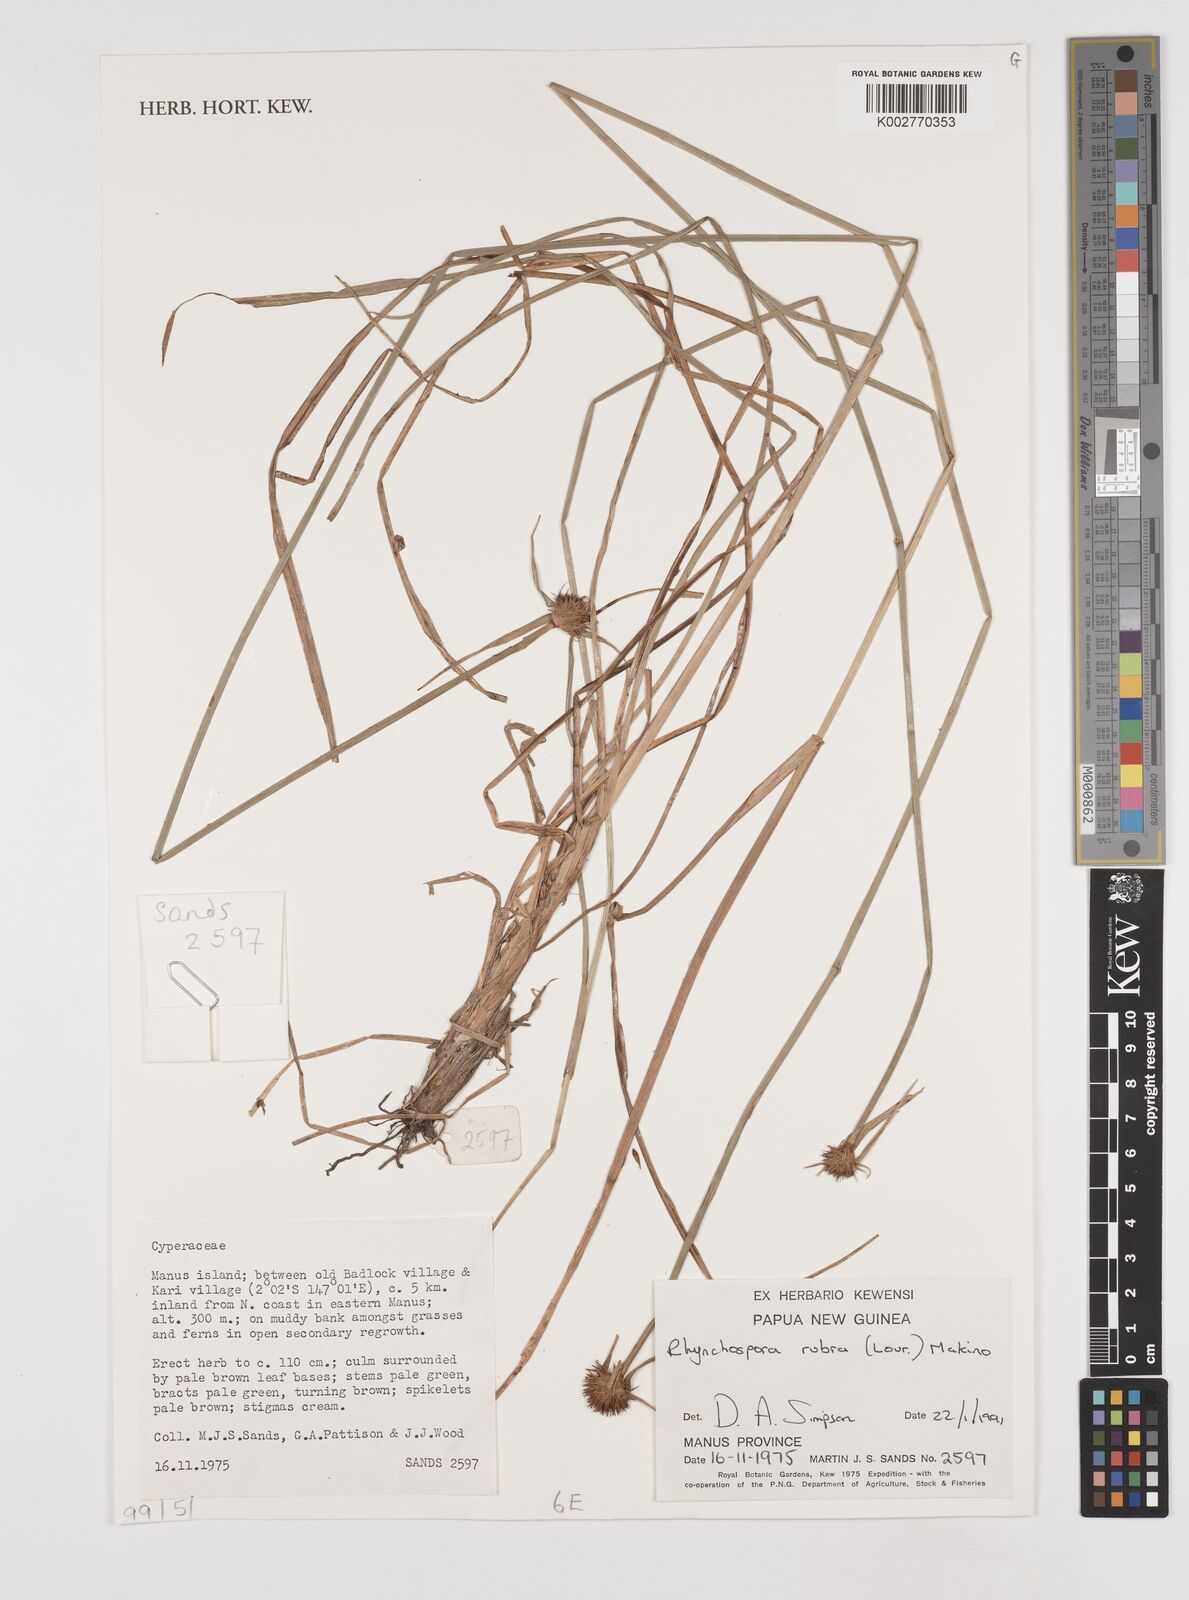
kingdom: Plantae
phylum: Tracheophyta
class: Liliopsida
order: Poales
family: Cyperaceae
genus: Rhynchospora
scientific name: Rhynchospora rubra
